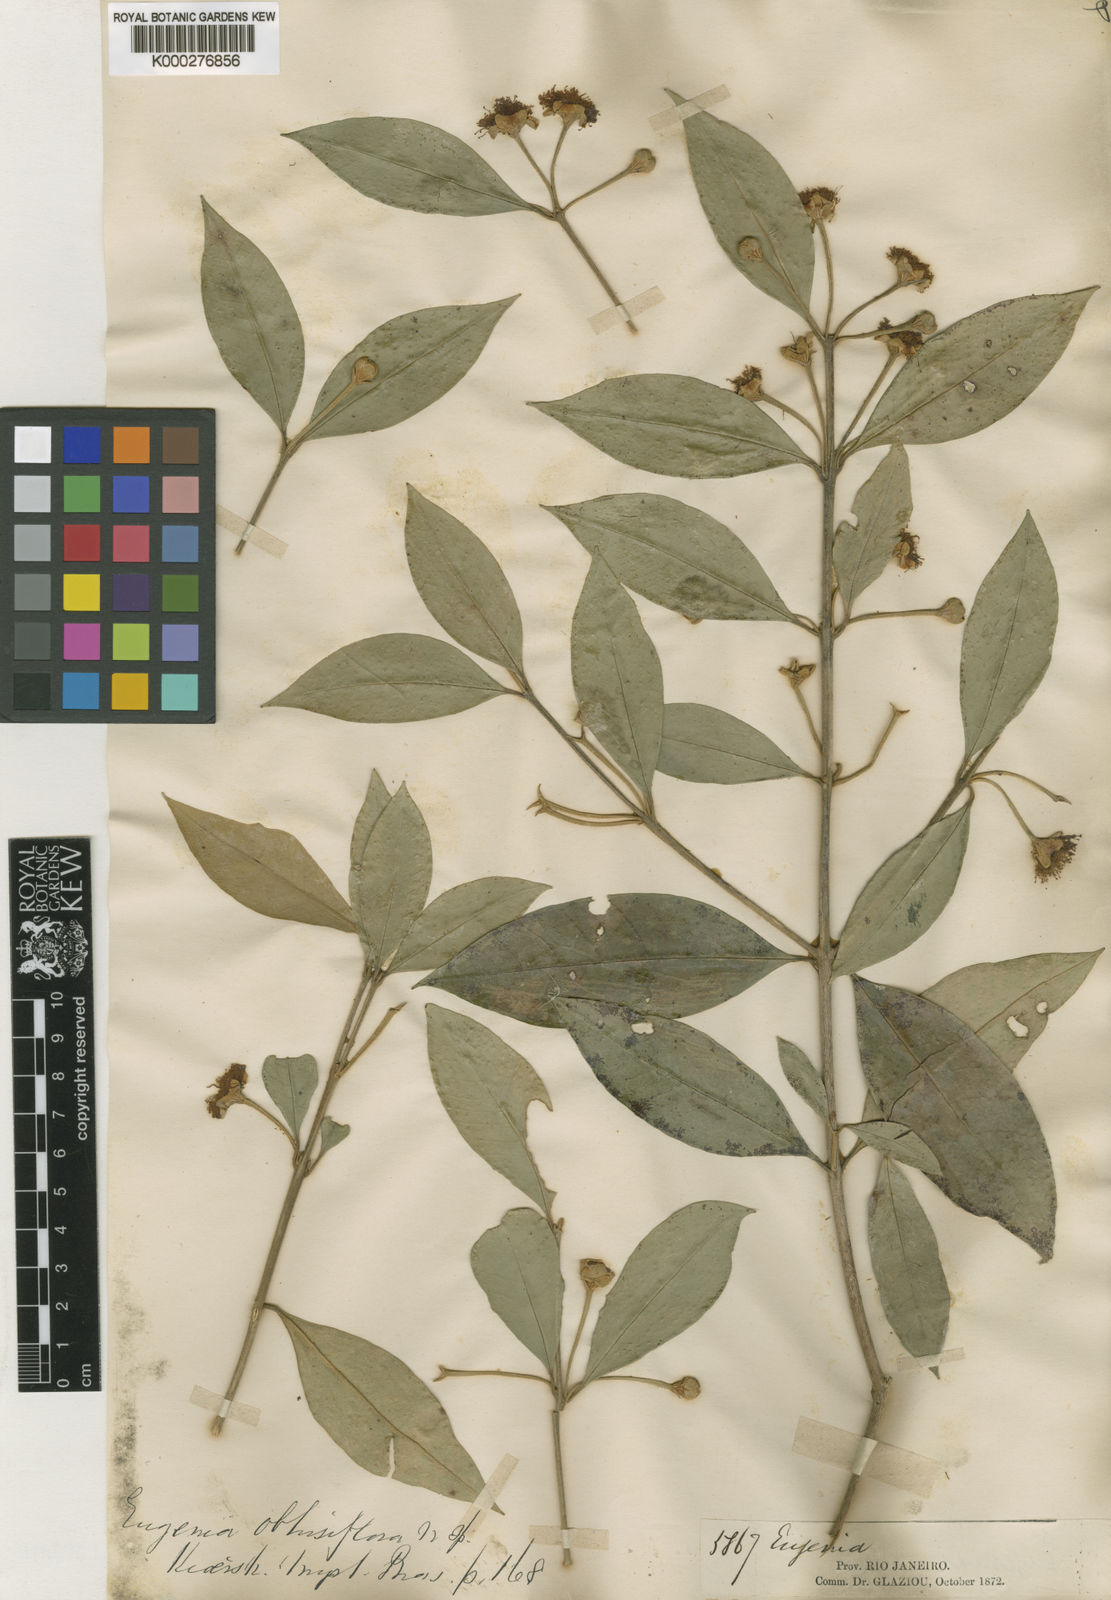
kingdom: Plantae
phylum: Tracheophyta
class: Magnoliopsida
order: Myrtales
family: Myrtaceae
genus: Myrceugenia
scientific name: Myrceugenia myrcioides
